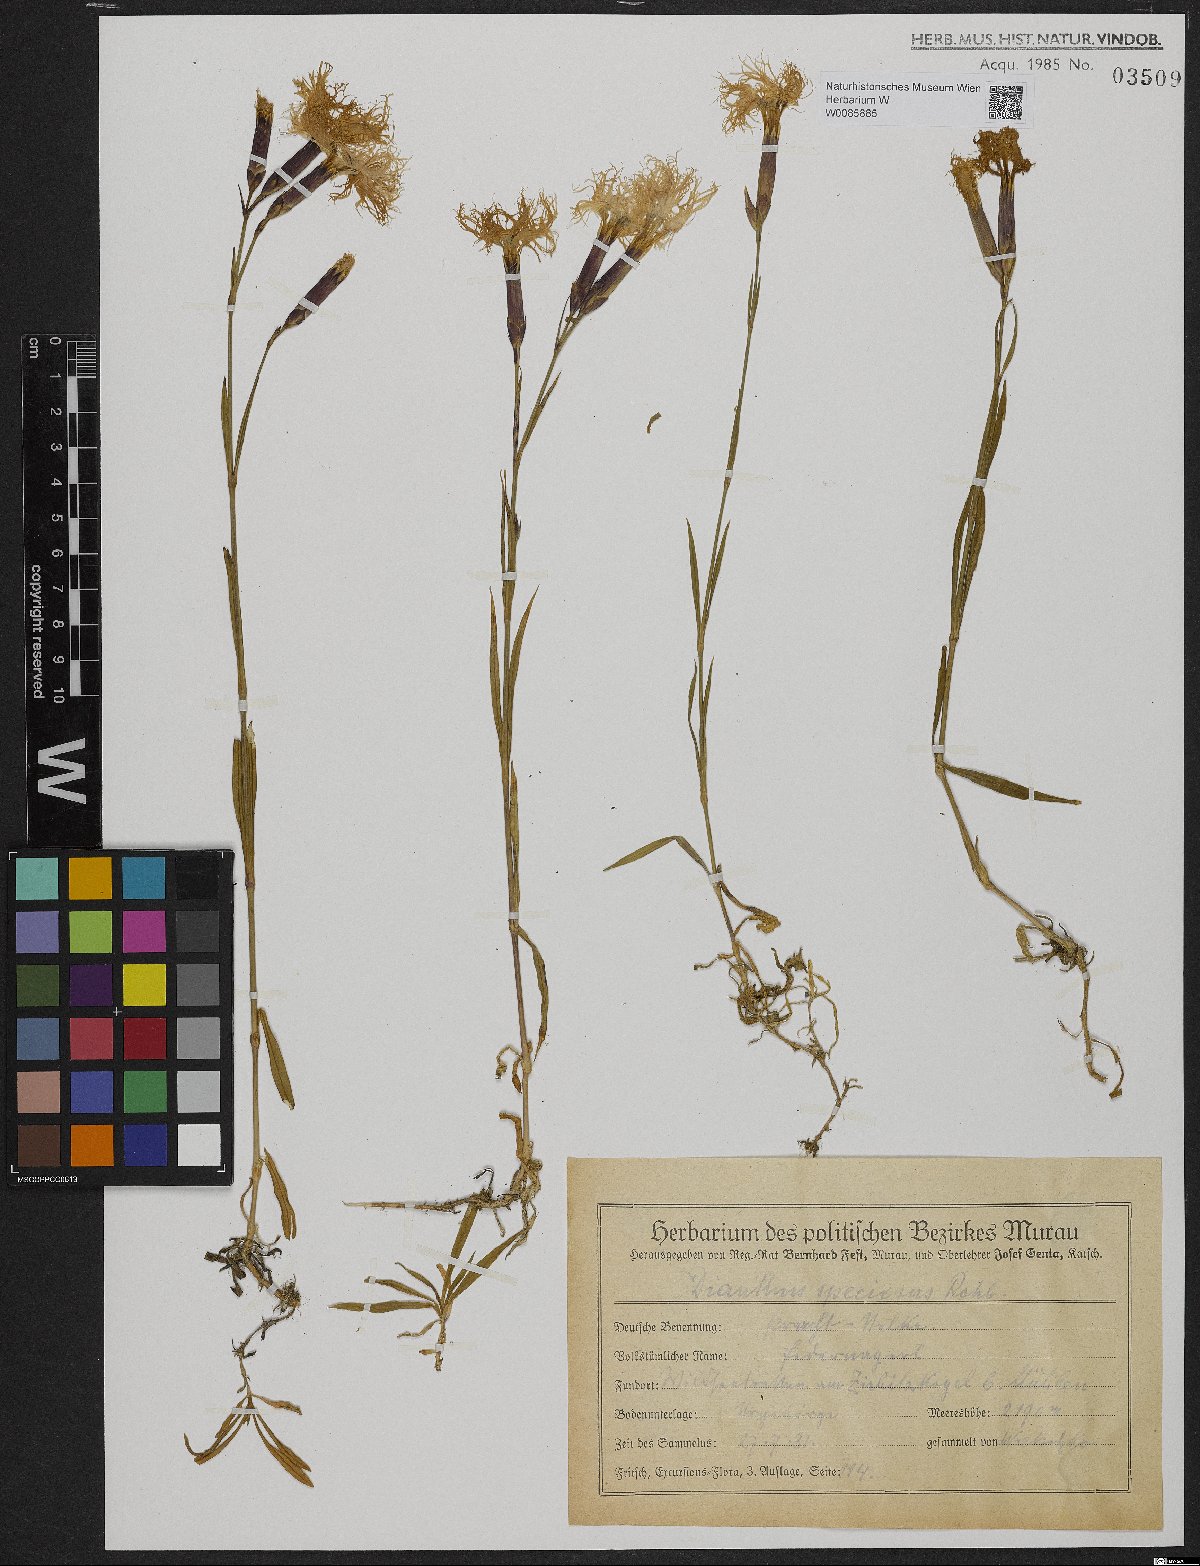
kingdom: Plantae
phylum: Tracheophyta
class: Magnoliopsida
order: Caryophyllales
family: Caryophyllaceae
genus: Dianthus
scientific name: Dianthus superbus
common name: Fringed pink
